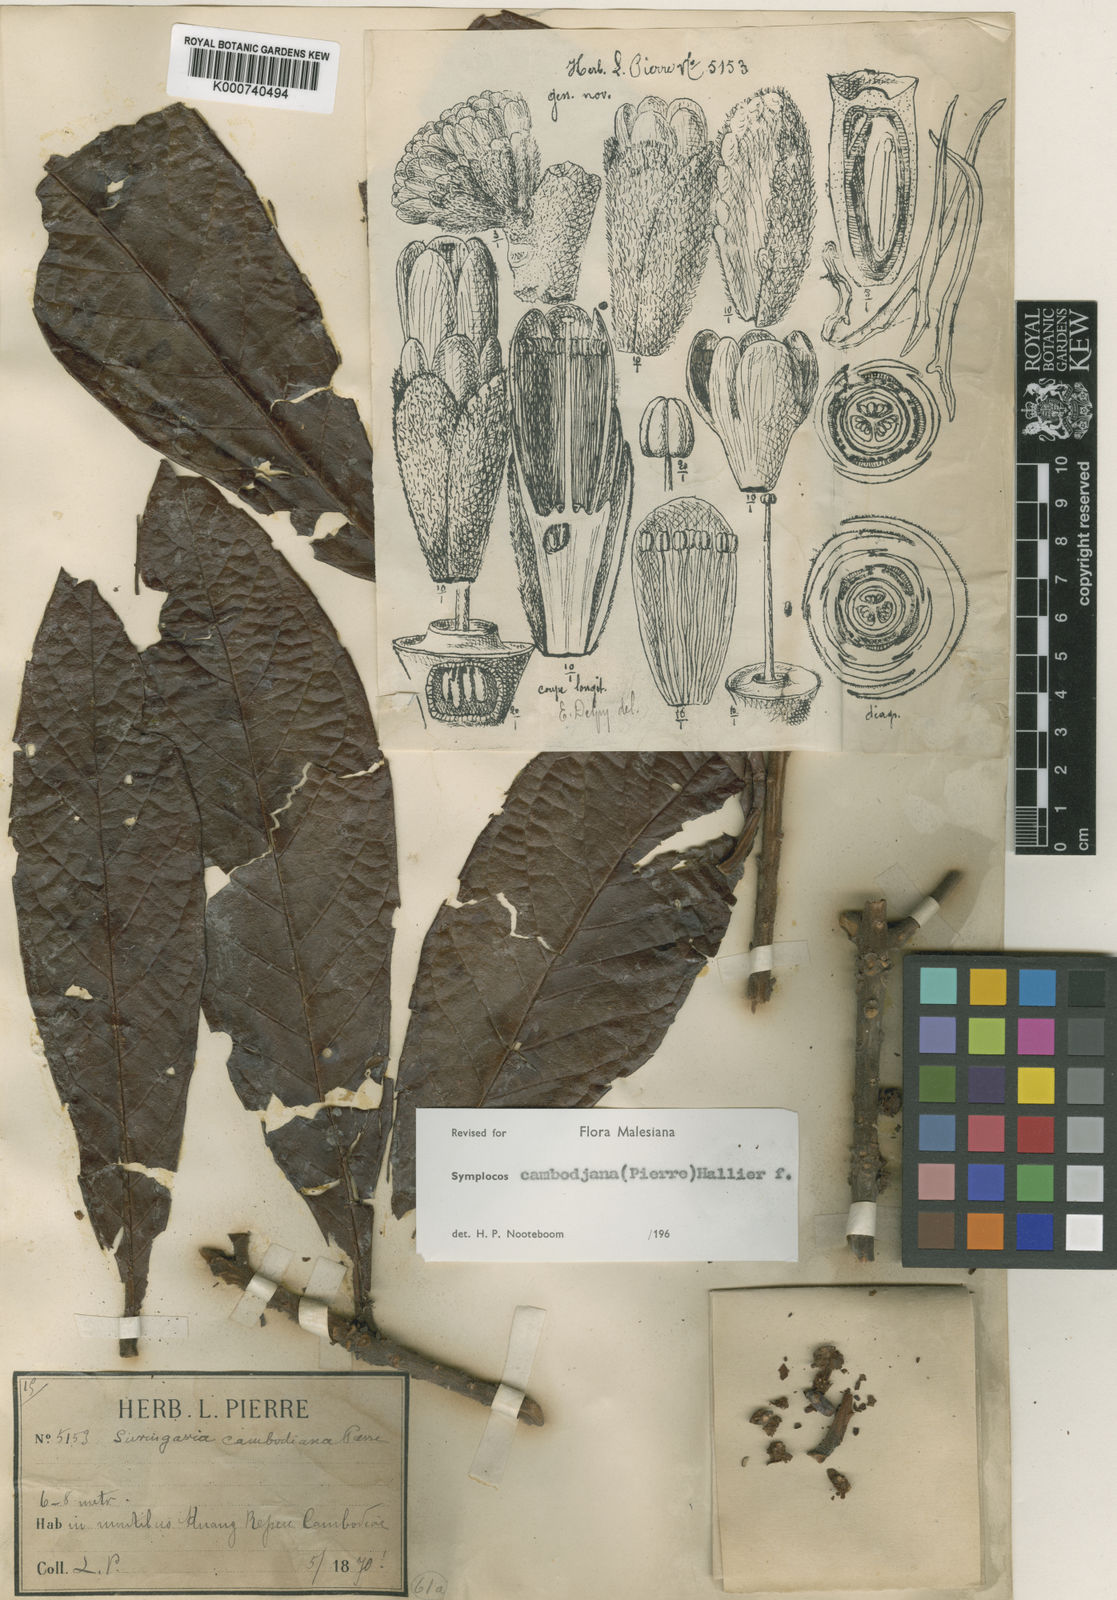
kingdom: Plantae
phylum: Tracheophyta
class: Magnoliopsida
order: Ericales
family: Symplocaceae
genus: Symplocos
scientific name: Symplocos cambodiana
